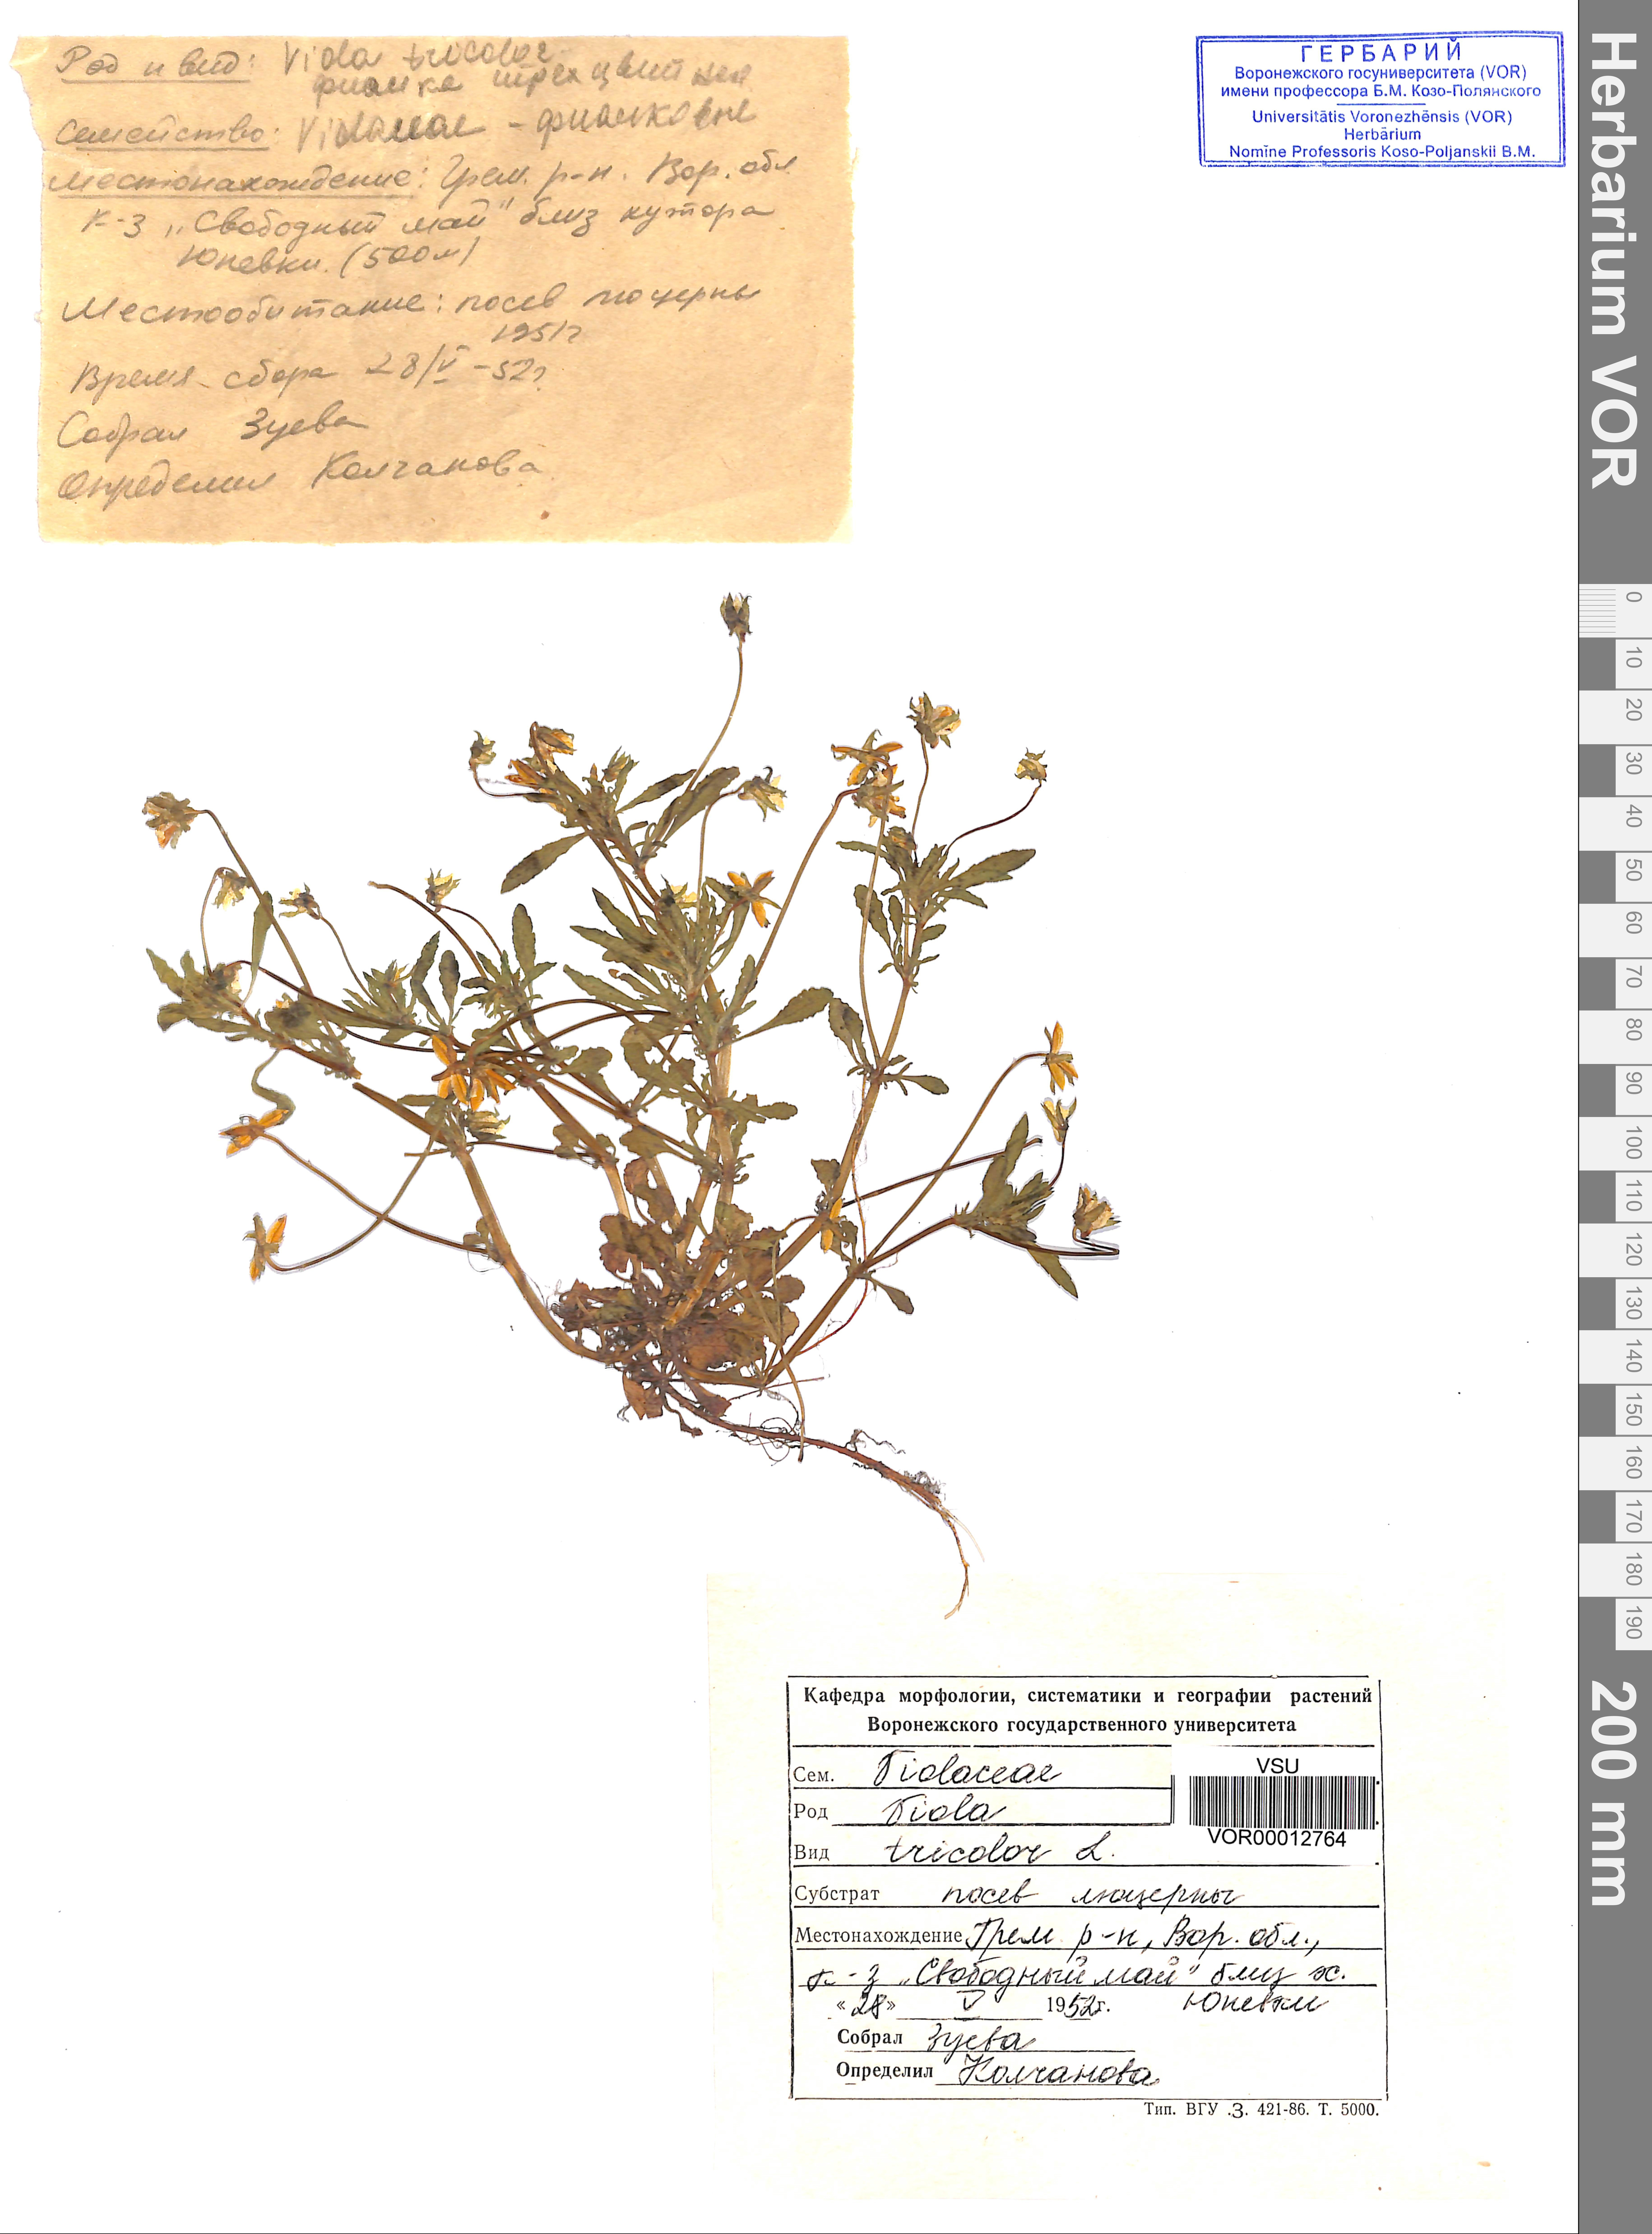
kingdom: Plantae
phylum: Tracheophyta
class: Magnoliopsida
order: Malpighiales
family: Violaceae
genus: Viola
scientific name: Viola tricolor
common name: Pansy
